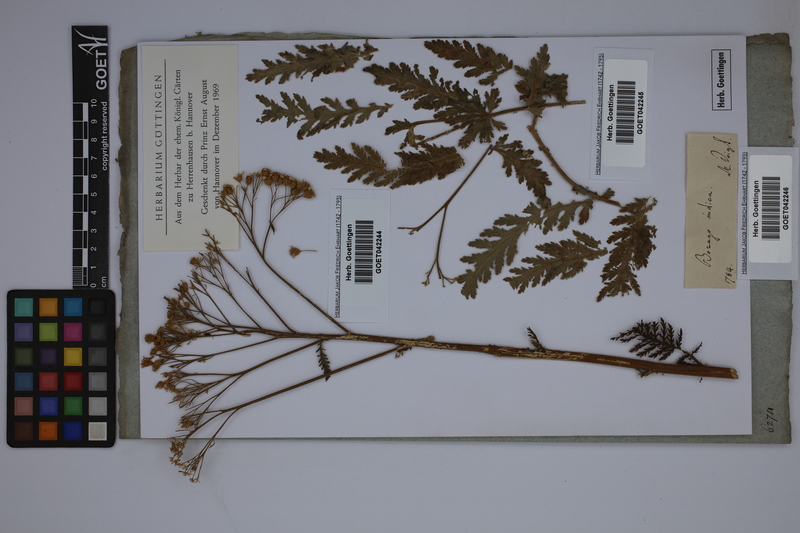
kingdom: Plantae
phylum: Tracheophyta
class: Magnoliopsida
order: Asterales
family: Asteraceae
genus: Tanacetum
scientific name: Tanacetum
